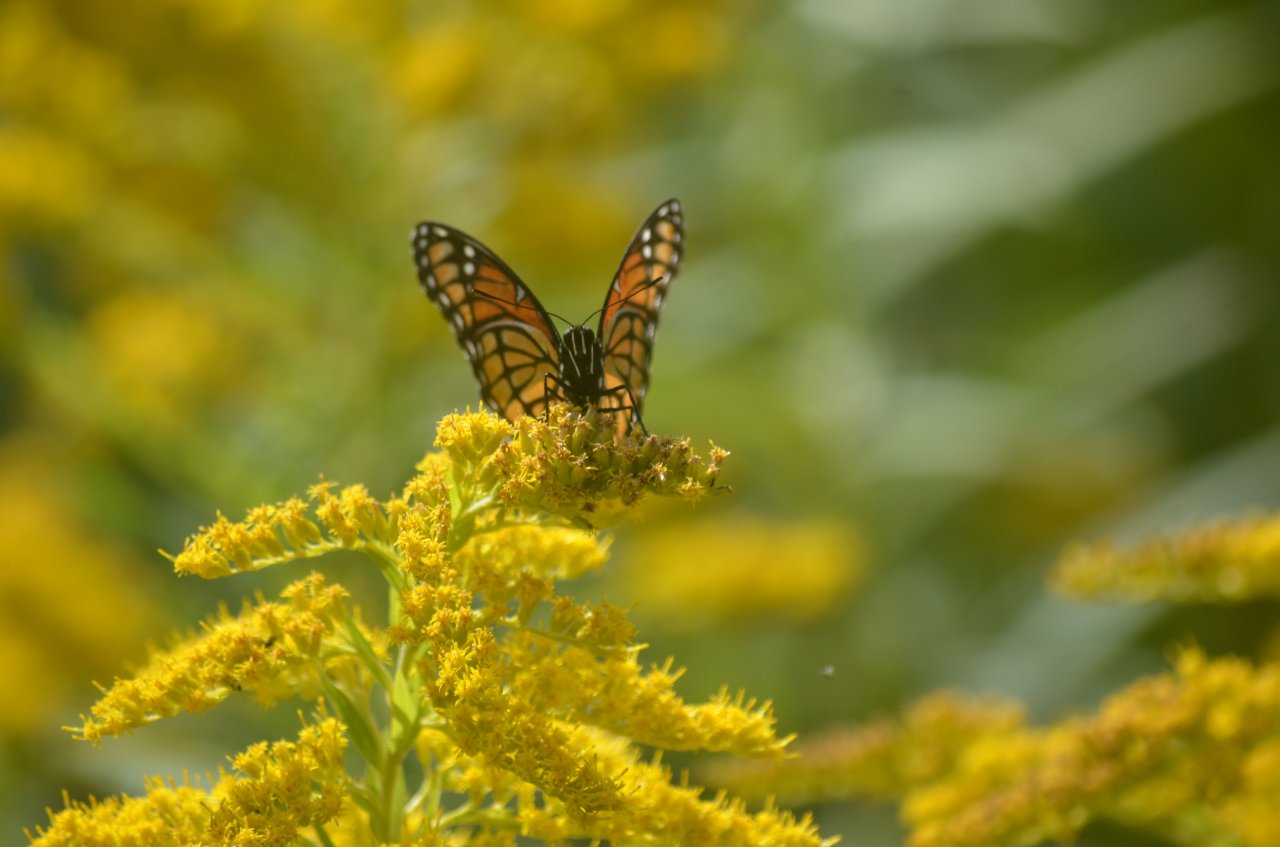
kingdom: Animalia
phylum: Arthropoda
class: Insecta
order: Lepidoptera
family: Nymphalidae
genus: Limenitis
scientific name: Limenitis archippus
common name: Viceroy
